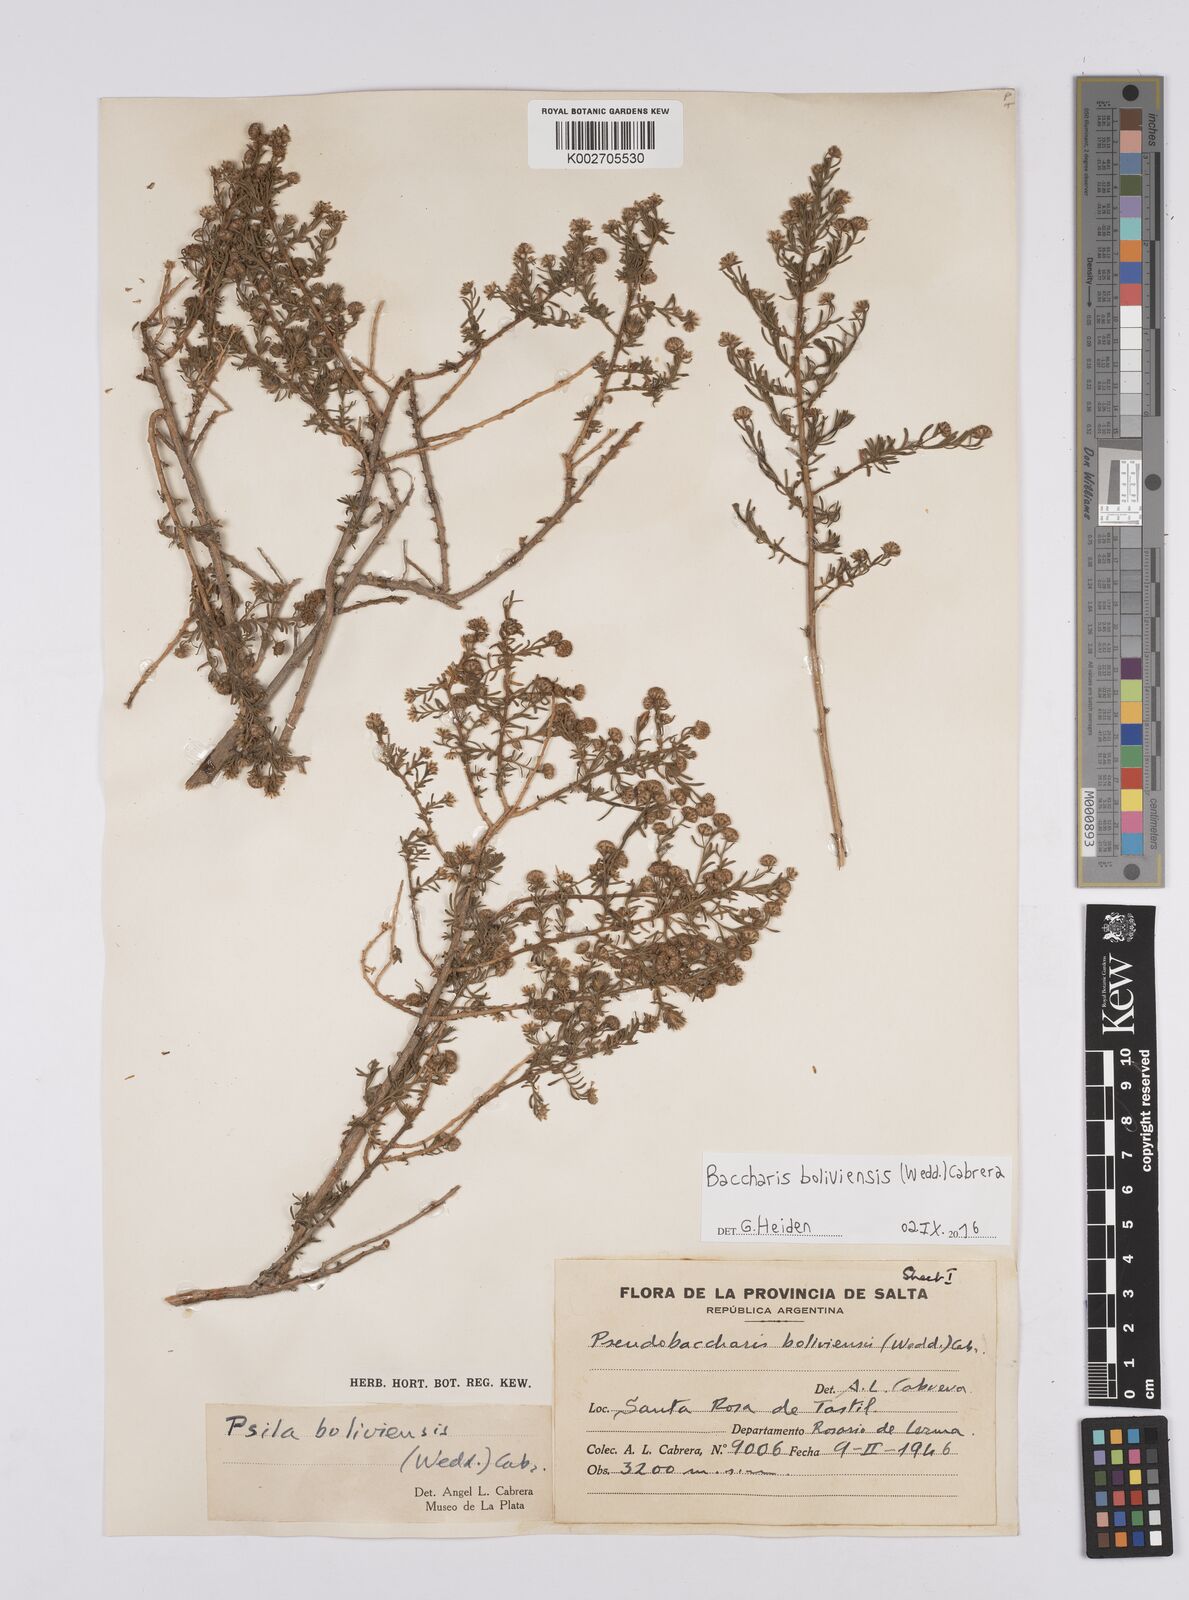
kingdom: Plantae
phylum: Tracheophyta
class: Magnoliopsida
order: Asterales
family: Asteraceae
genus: Baccharis
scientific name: Baccharis bolivensis
